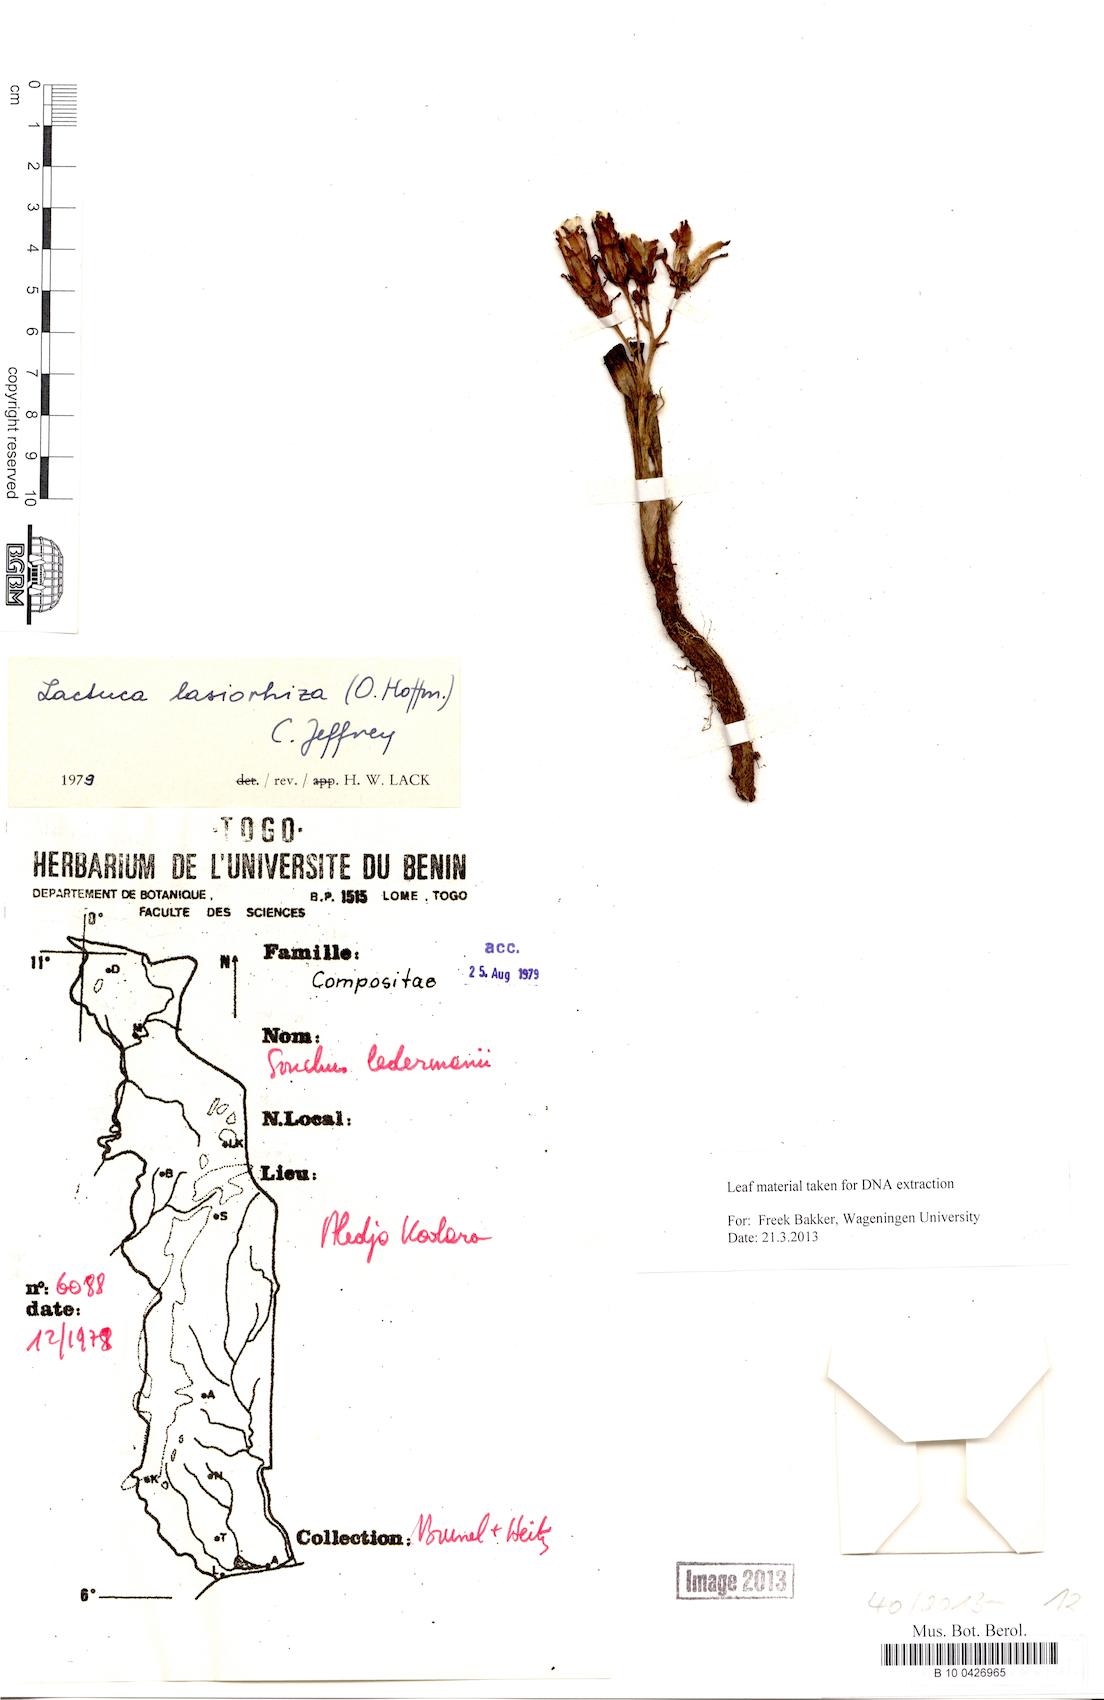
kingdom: Plantae
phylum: Tracheophyta
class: Magnoliopsida
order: Asterales
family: Asteraceae
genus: Lactuca
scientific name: Lactuca lasiorhiza
